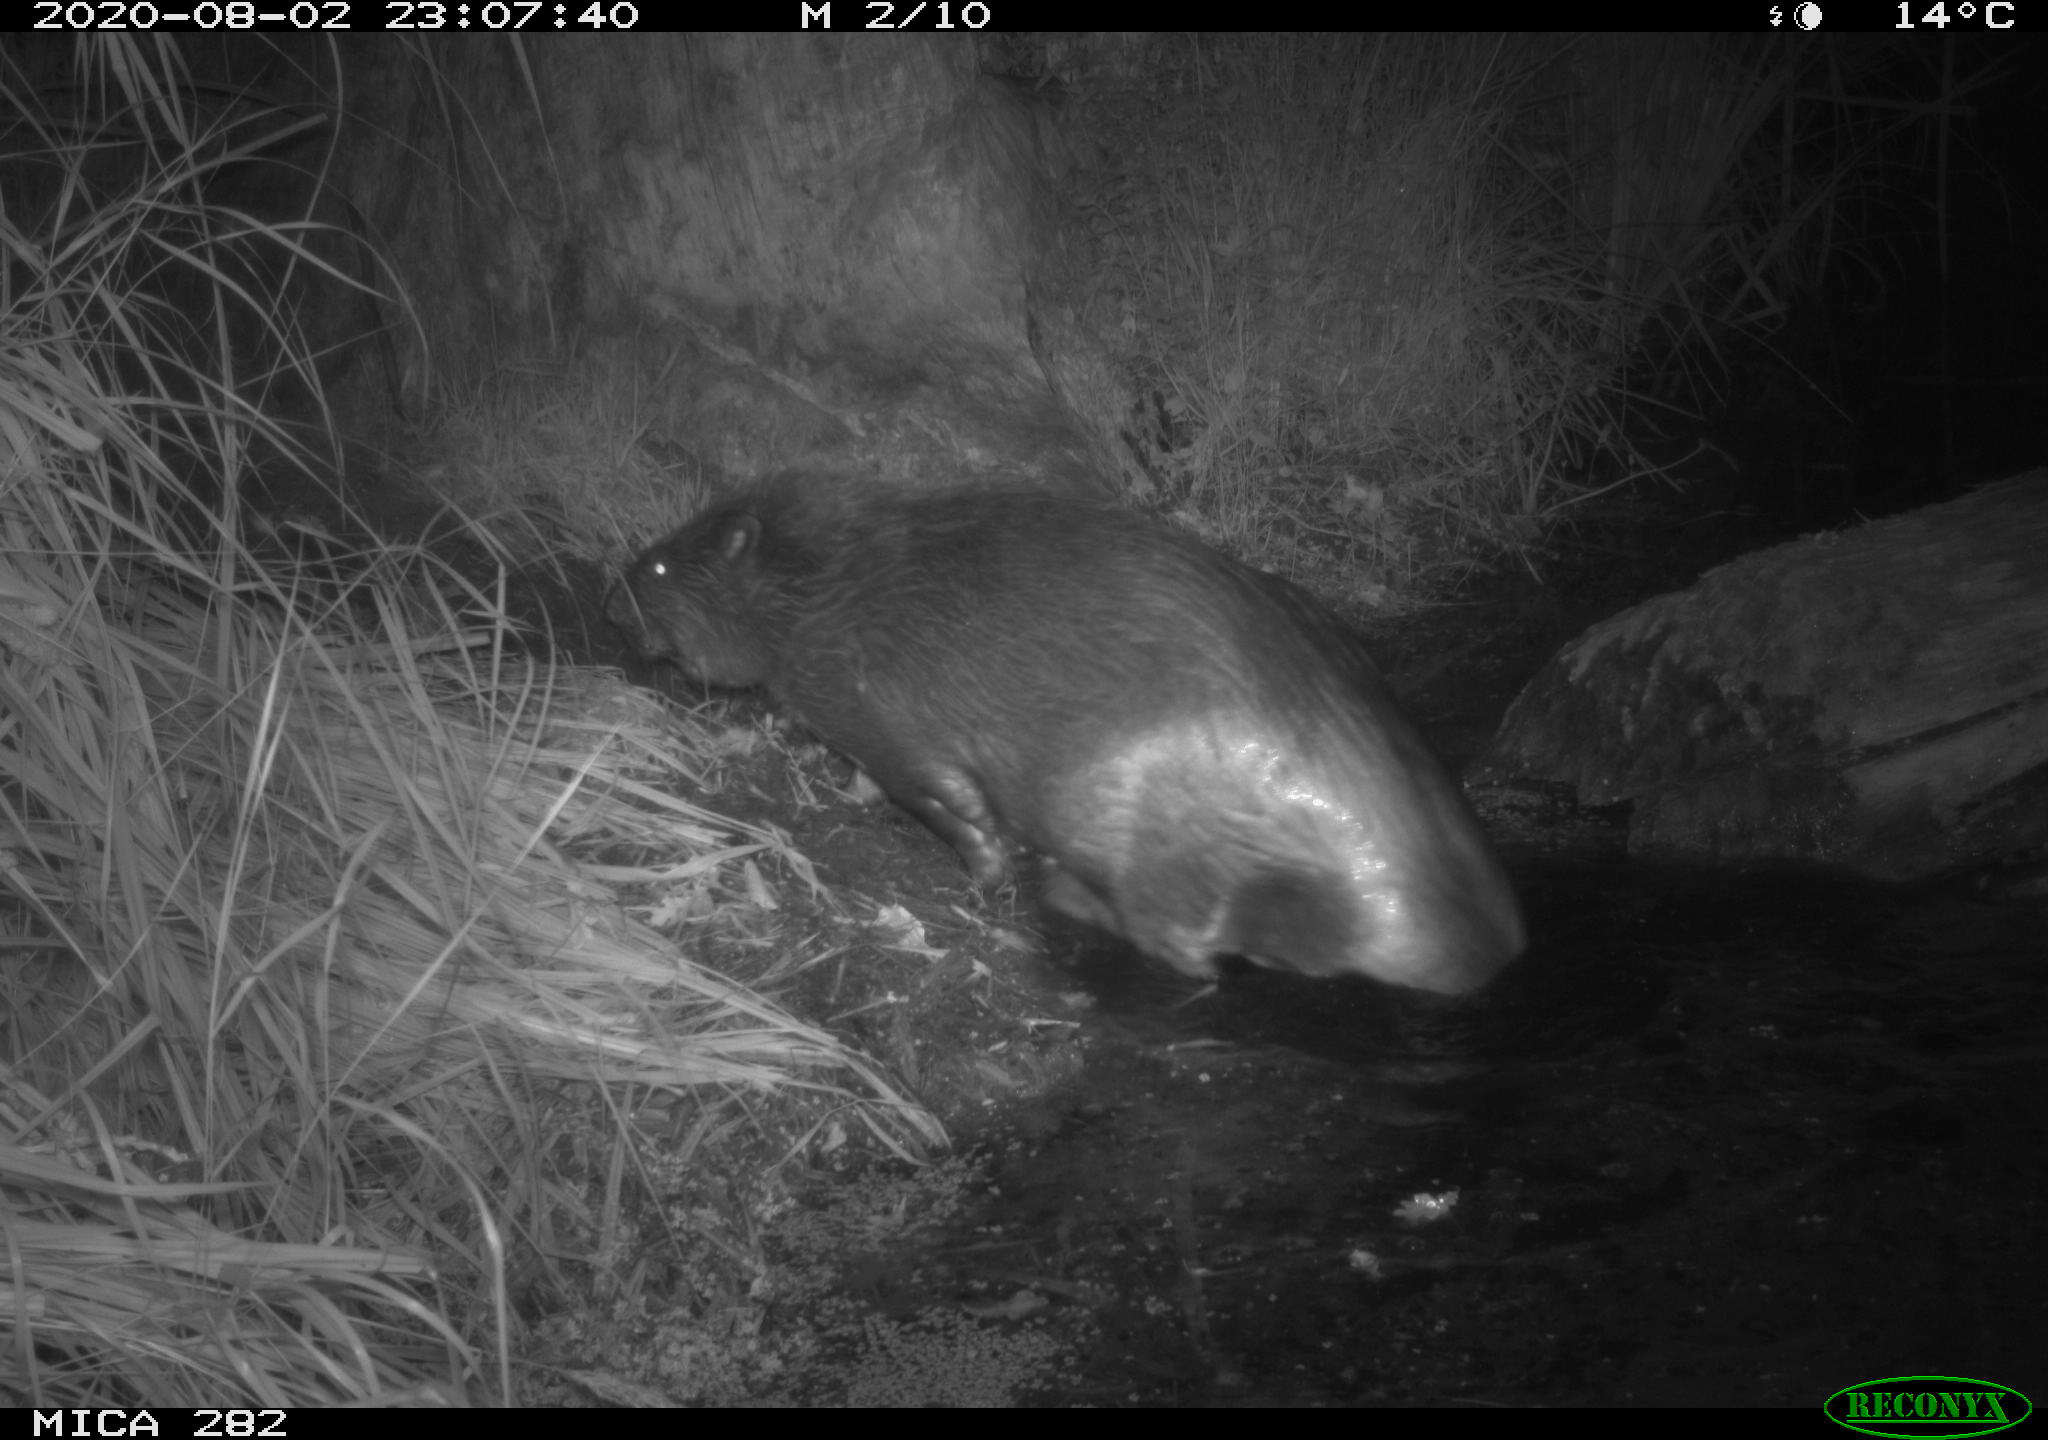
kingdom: Animalia
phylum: Chordata
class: Mammalia
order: Rodentia
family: Castoridae
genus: Castor
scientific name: Castor fiber
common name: Eurasian beaver
